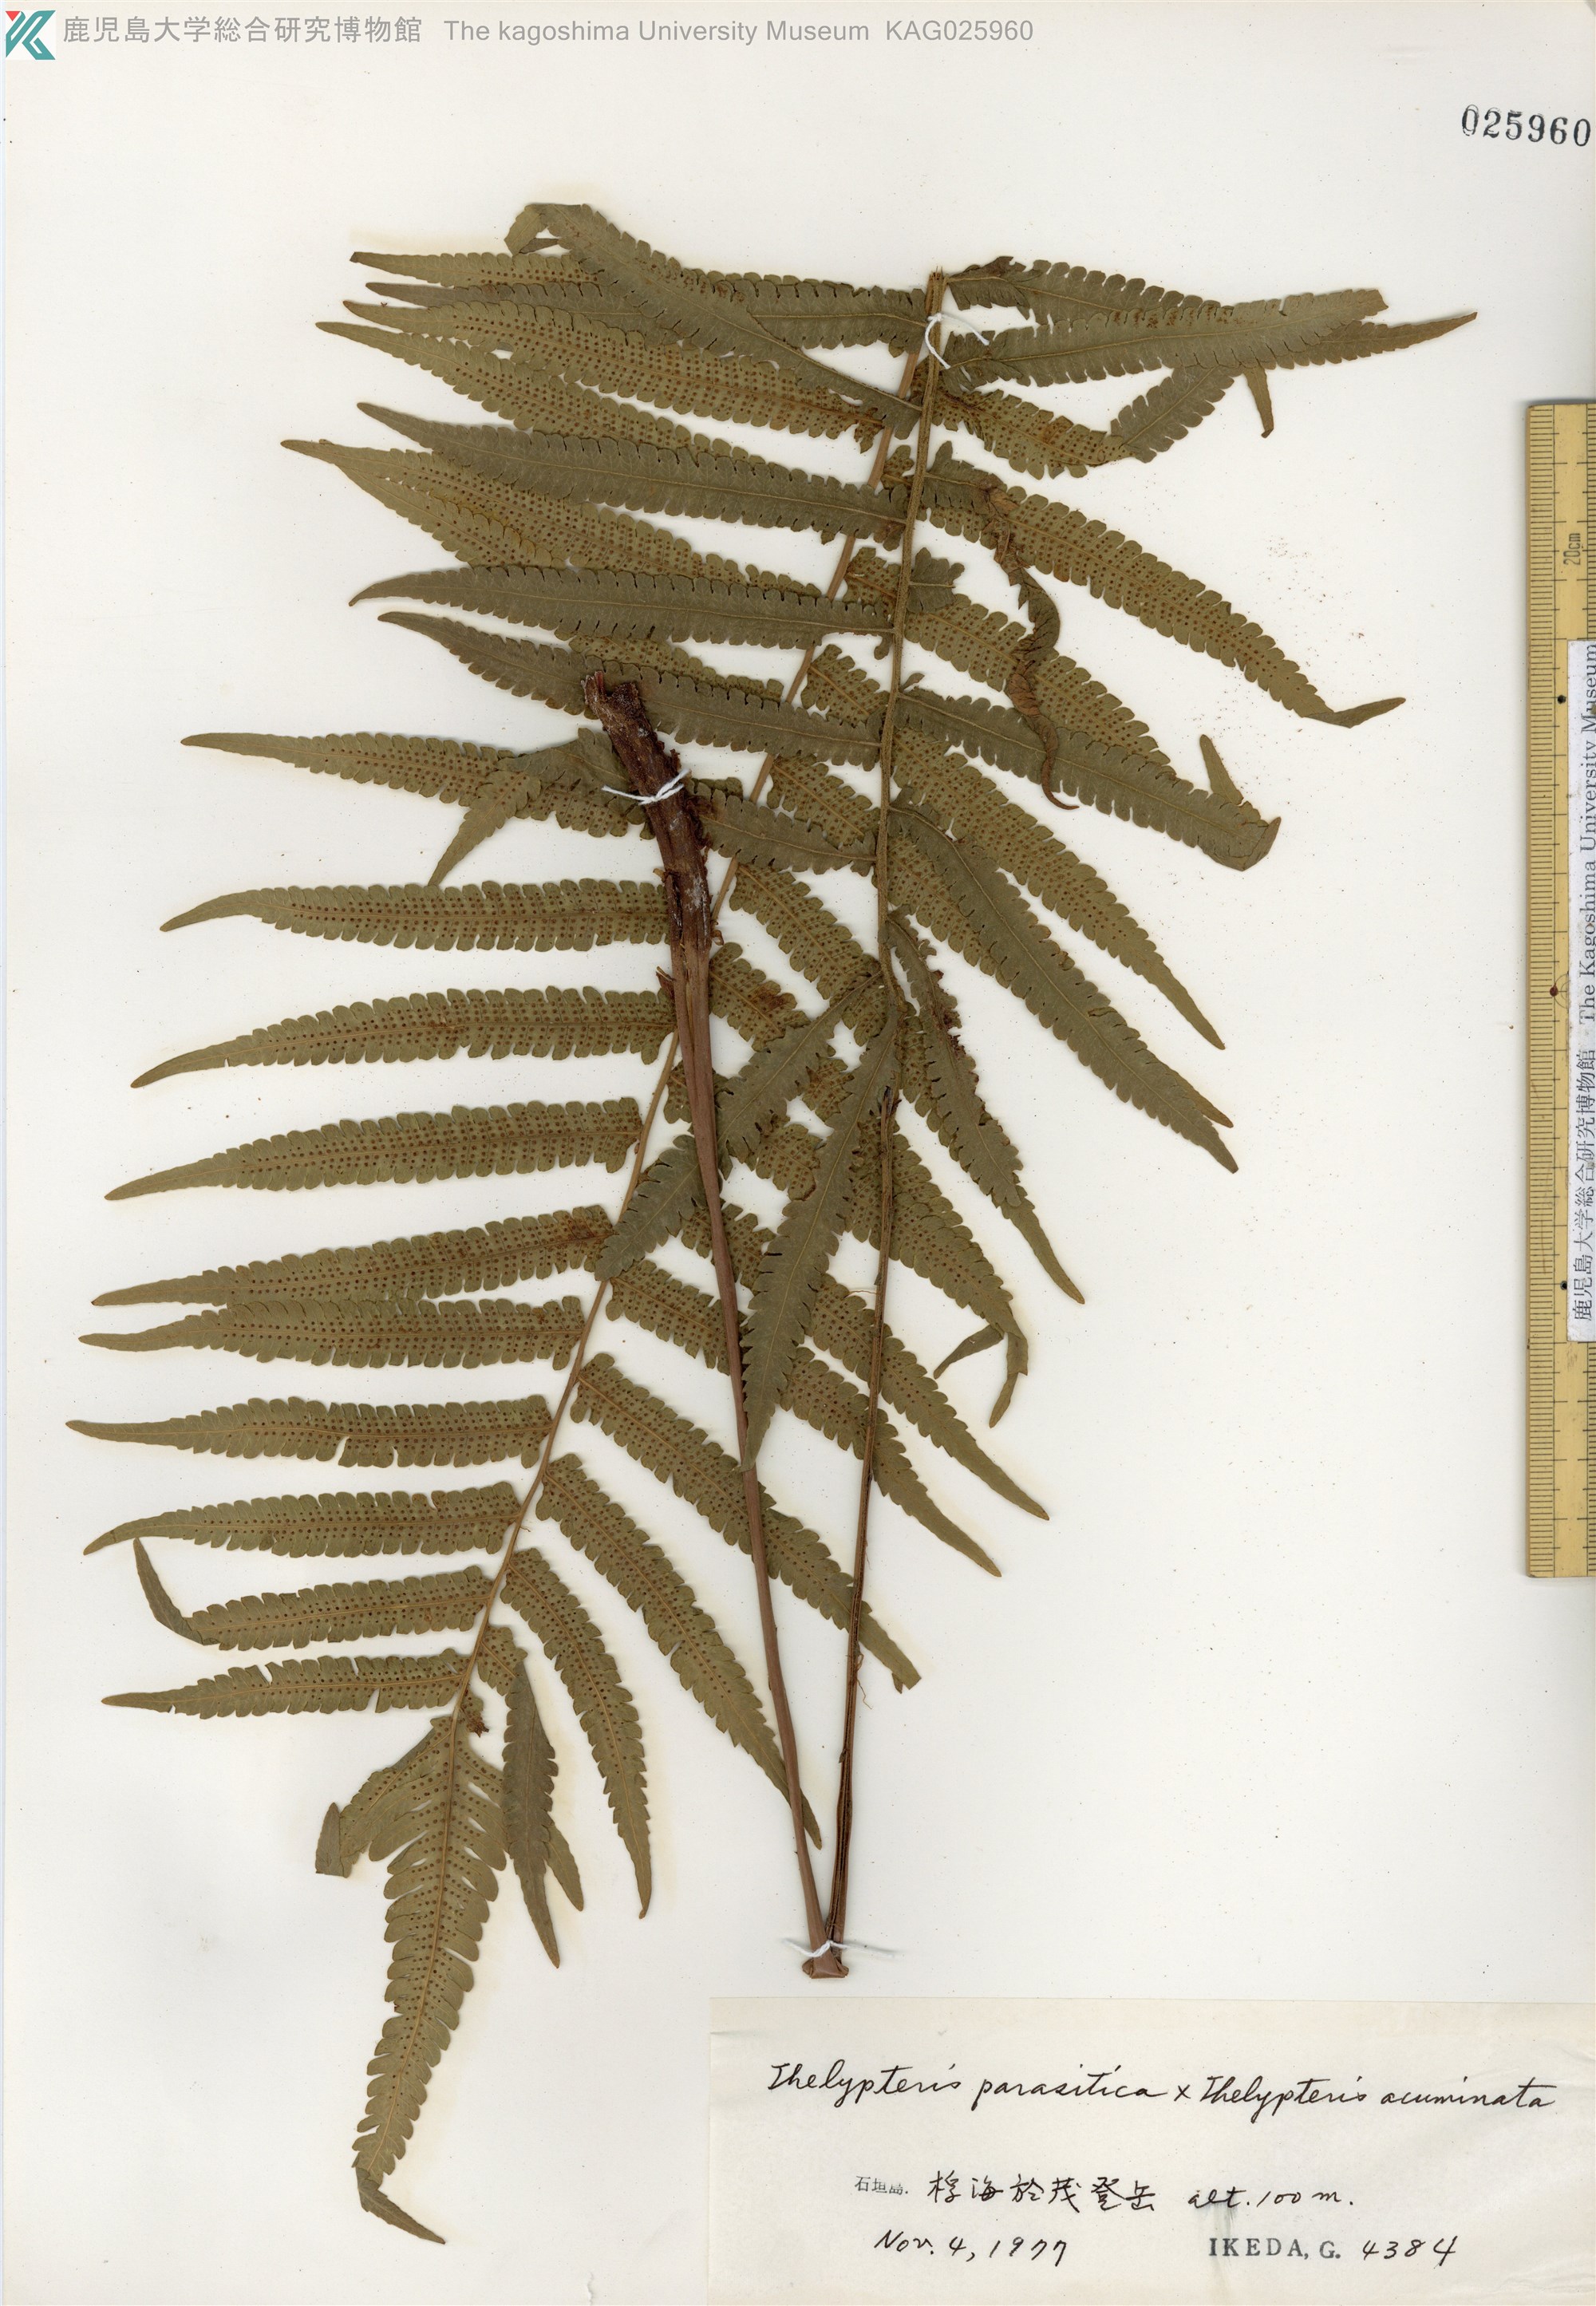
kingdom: Plantae
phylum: Tracheophyta
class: Polypodiopsida
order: Polypodiales
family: Thelypteridaceae
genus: Christella
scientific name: Christella parasitica
